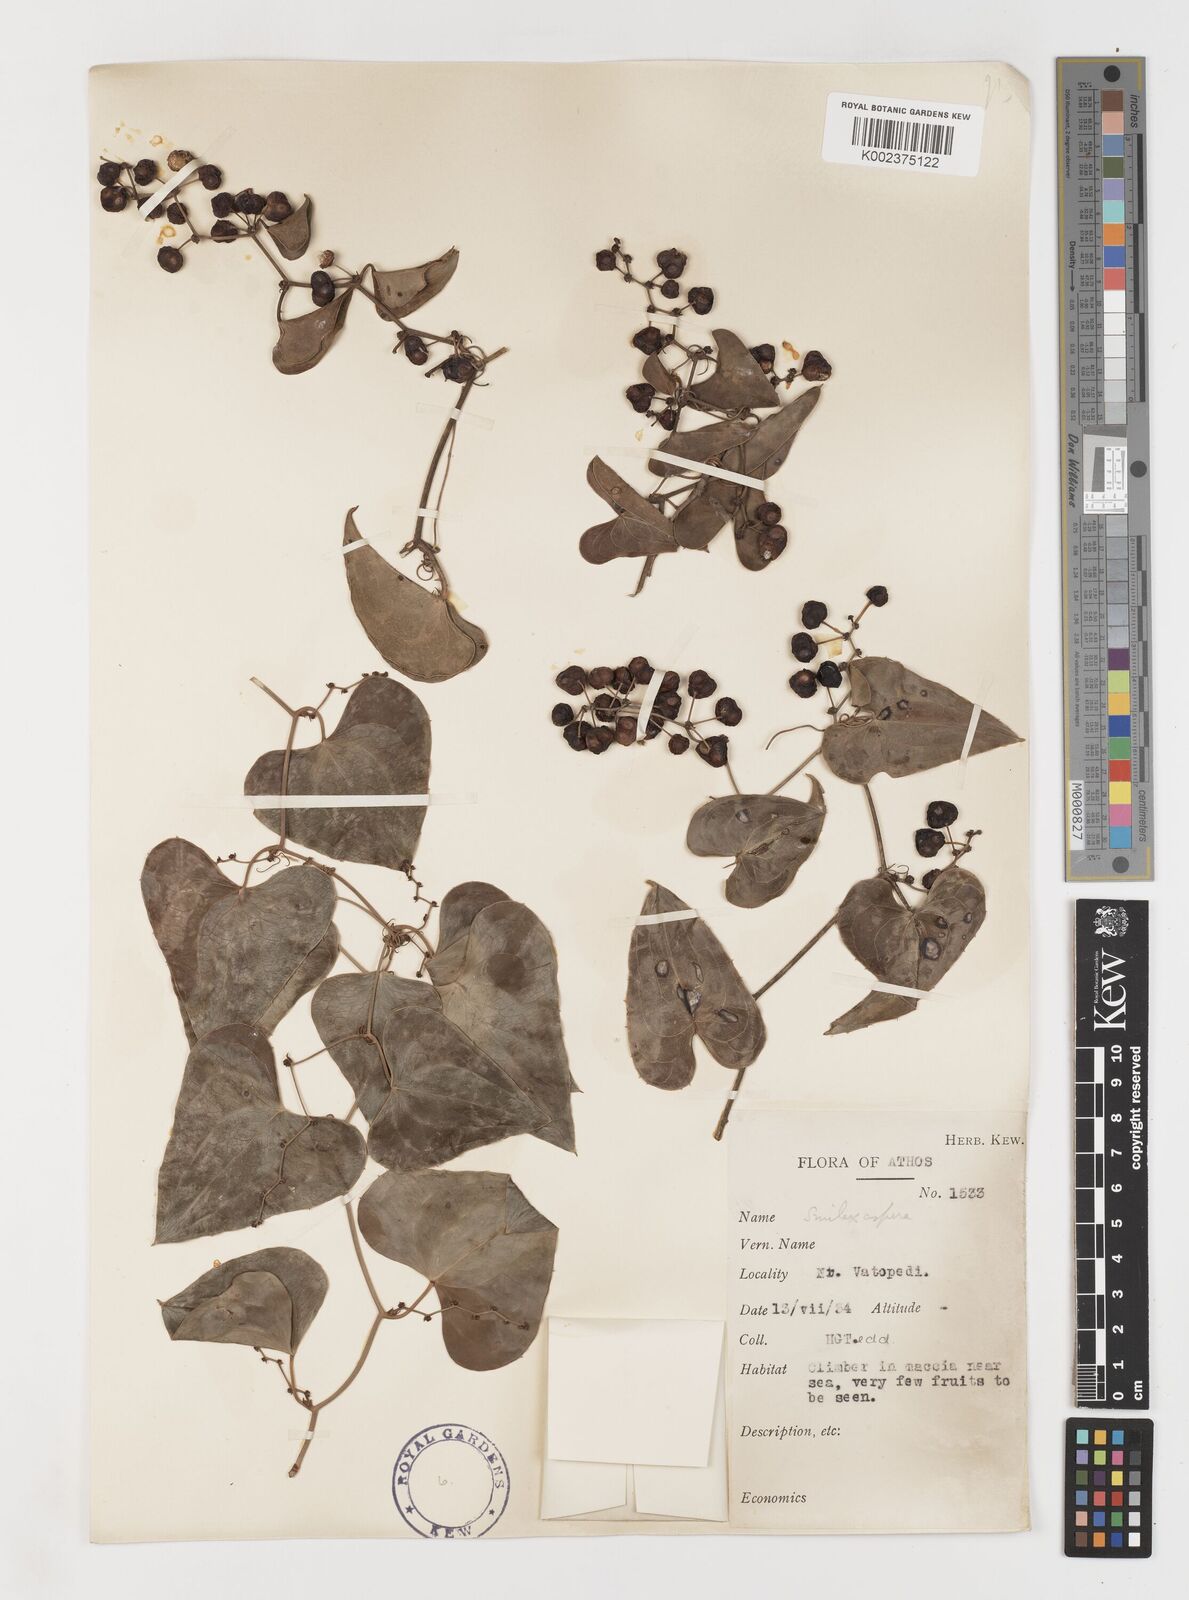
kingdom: Plantae
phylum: Tracheophyta
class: Liliopsida
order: Liliales
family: Smilacaceae
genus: Smilax
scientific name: Smilax aspera
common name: Common smilax
